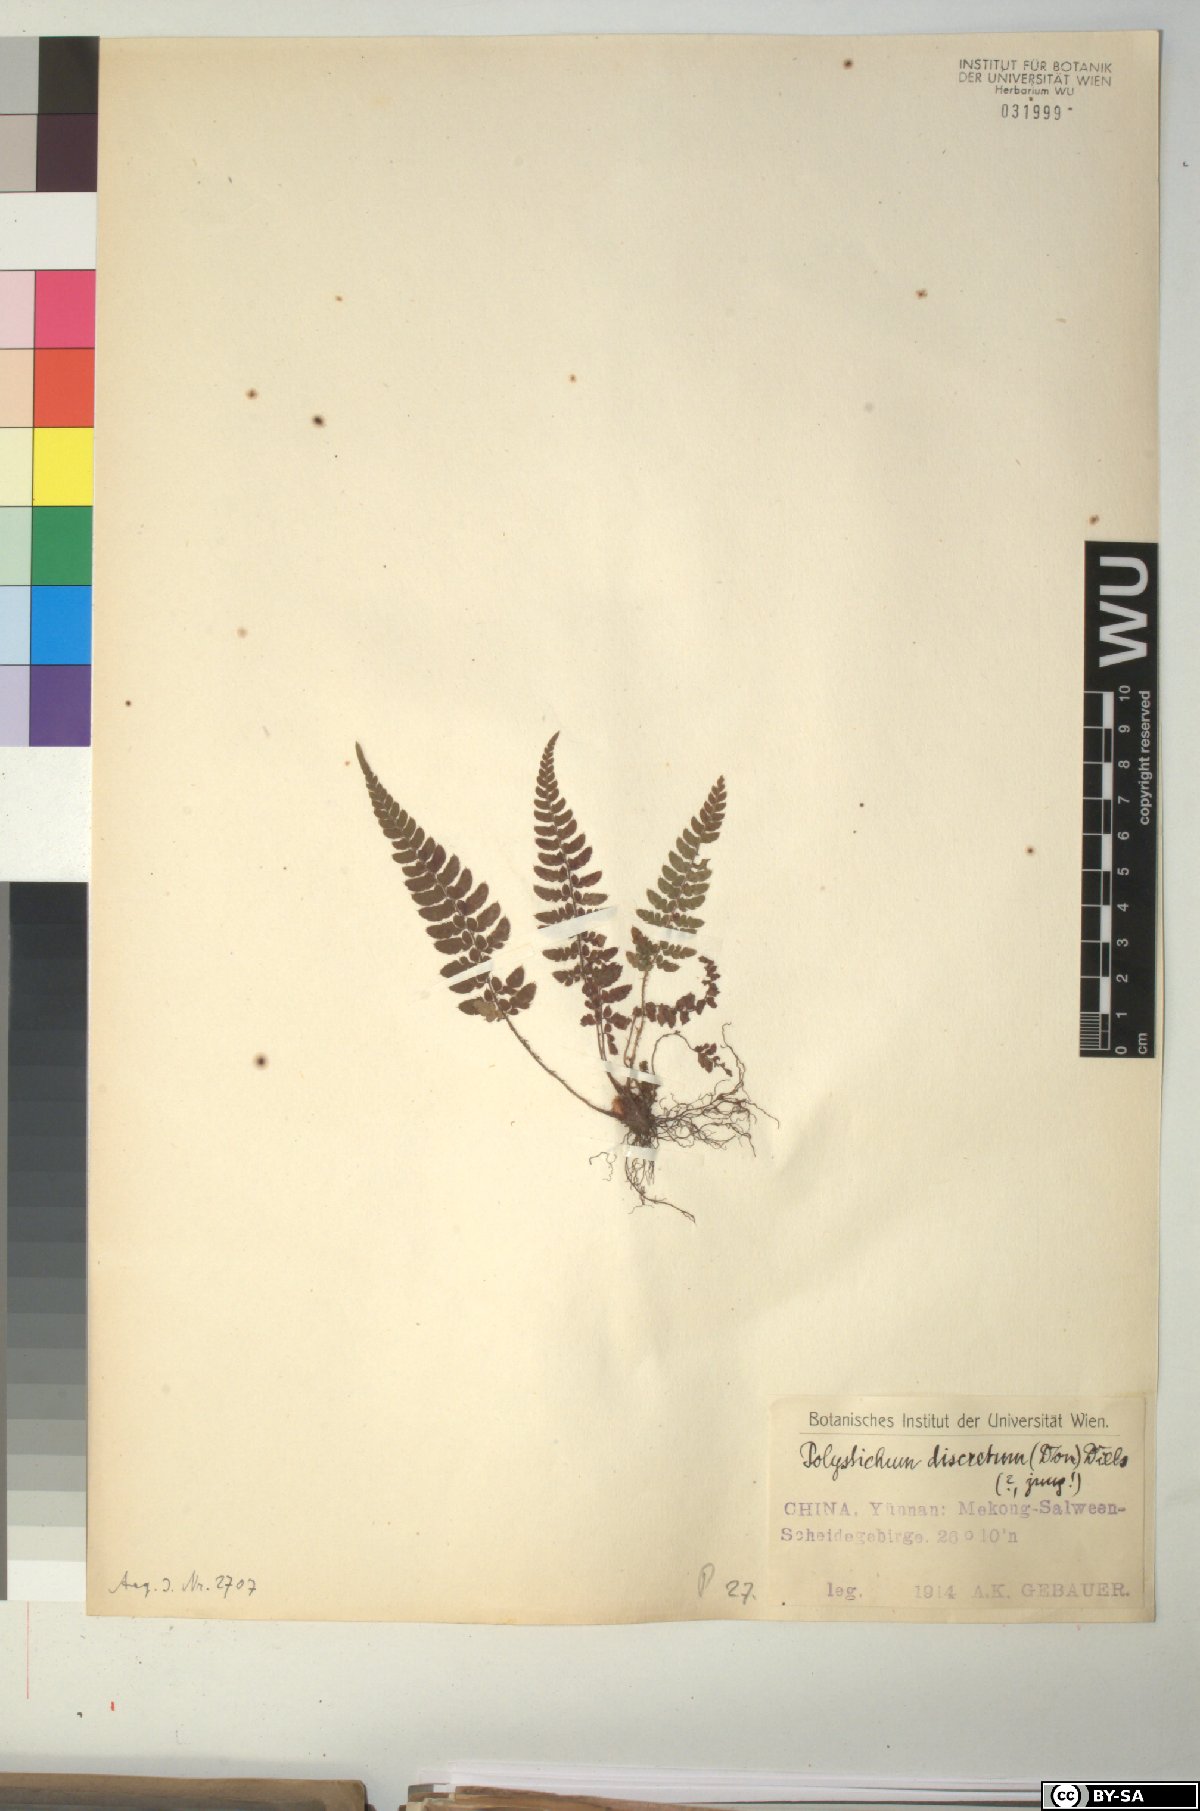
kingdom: Plantae
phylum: Tracheophyta
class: Polypodiopsida
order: Polypodiales
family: Dryopteridaceae
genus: Polystichum
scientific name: Polystichum discretum
